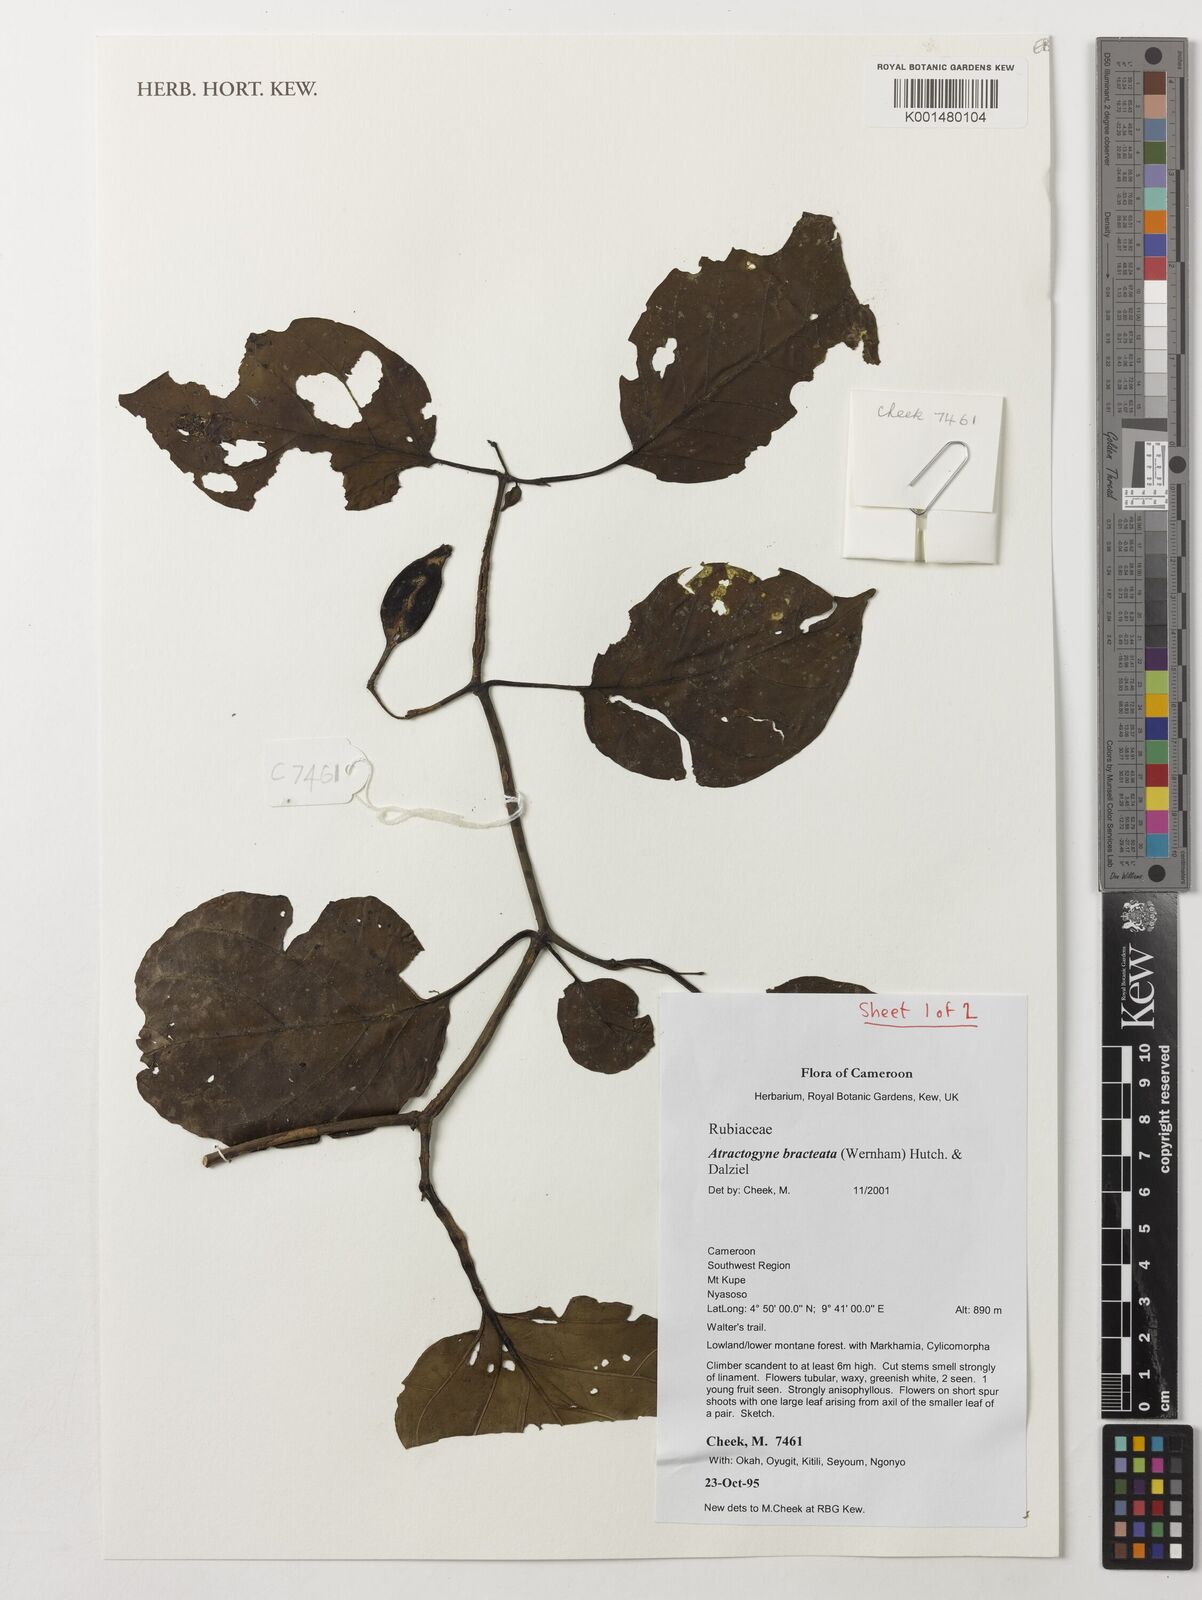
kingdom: Plantae
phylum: Tracheophyta
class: Magnoliopsida
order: Gentianales
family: Rubiaceae
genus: Atractogyne
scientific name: Atractogyne bracteata
